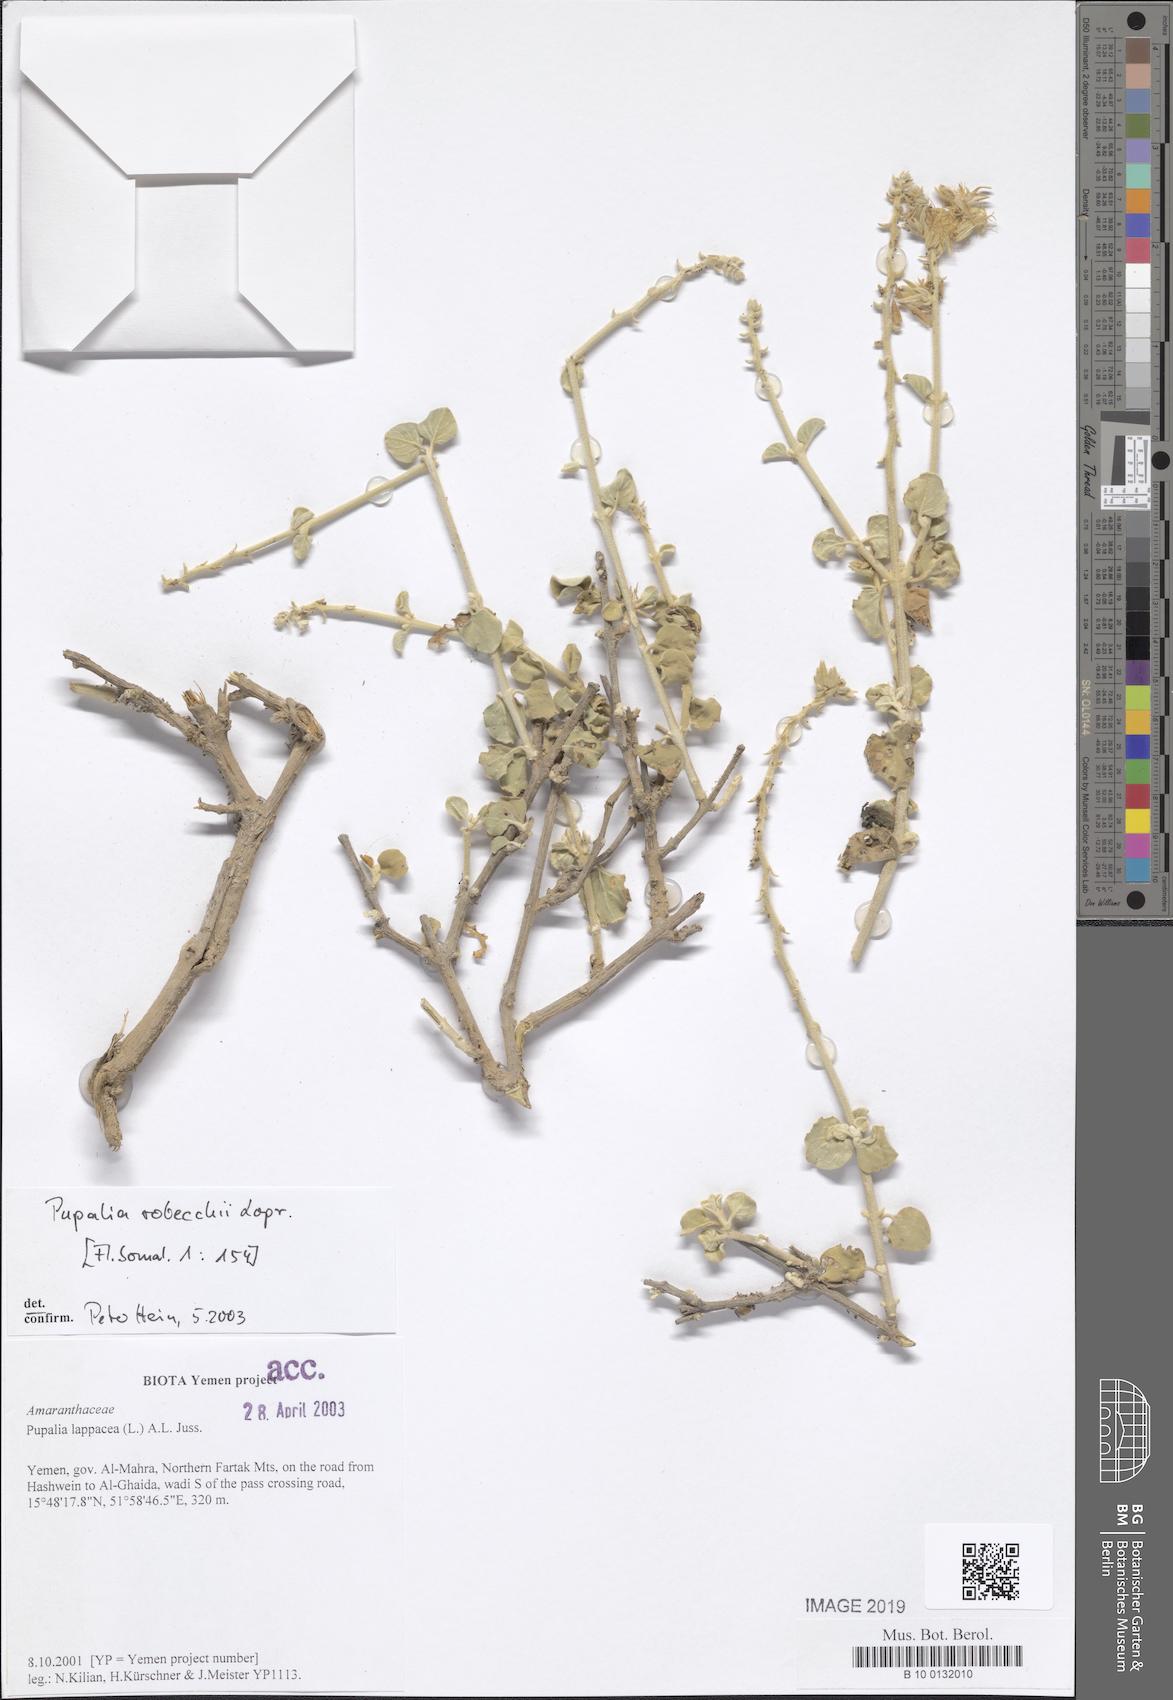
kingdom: Plantae
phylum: Tracheophyta
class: Magnoliopsida
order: Caryophyllales
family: Amaranthaceae
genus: Pupalia
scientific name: Pupalia robecchii
